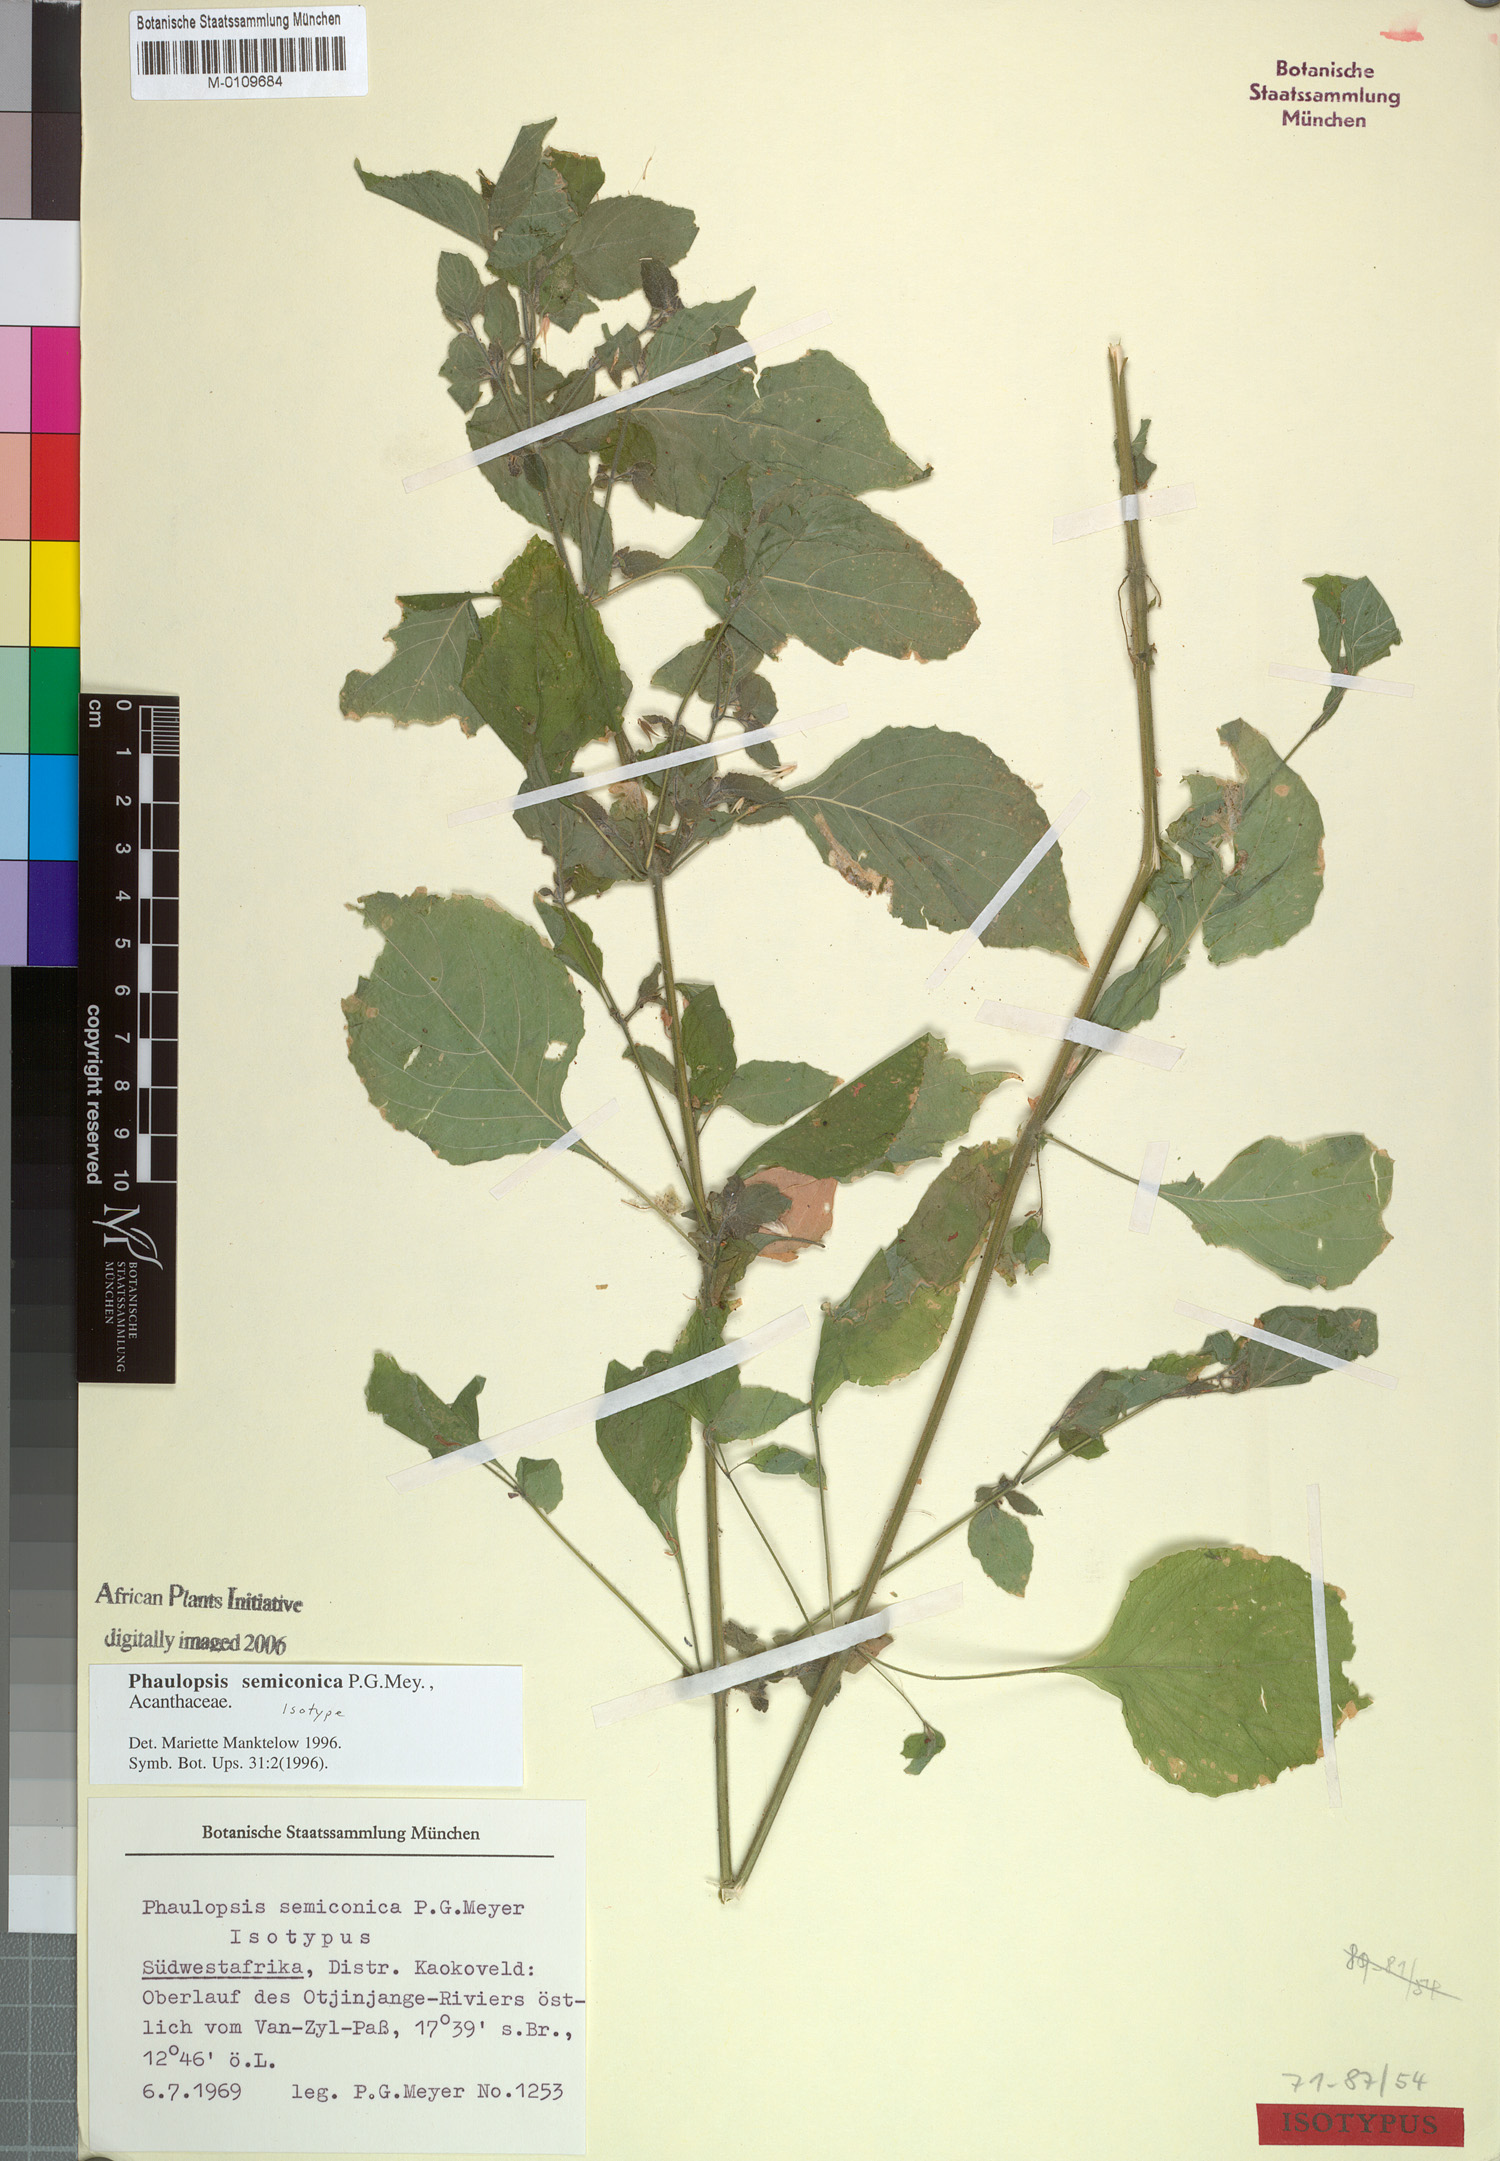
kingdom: Plantae
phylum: Tracheophyta
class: Magnoliopsida
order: Lamiales
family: Acanthaceae
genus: Phaulopsis
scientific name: Phaulopsis semiconica
